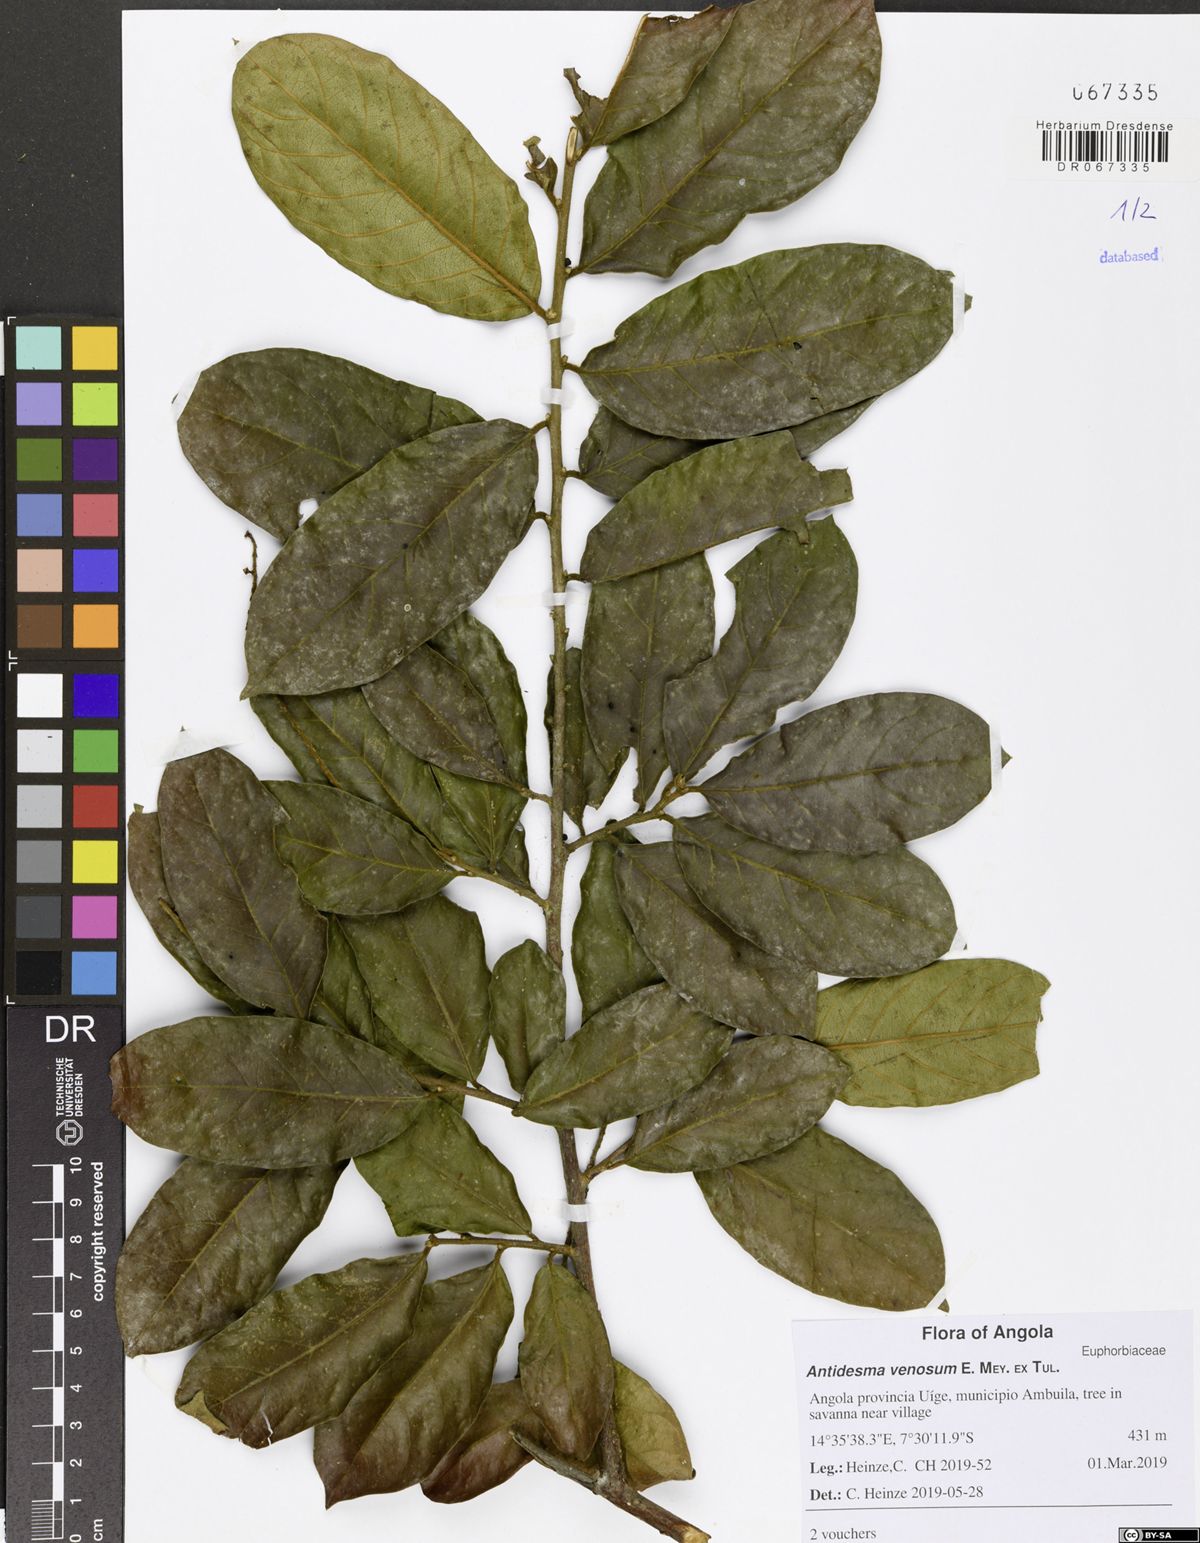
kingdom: Plantae
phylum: Tracheophyta
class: Magnoliopsida
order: Malpighiales
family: Phyllanthaceae
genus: Antidesma
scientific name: Antidesma venosum
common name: Tassel-berry
